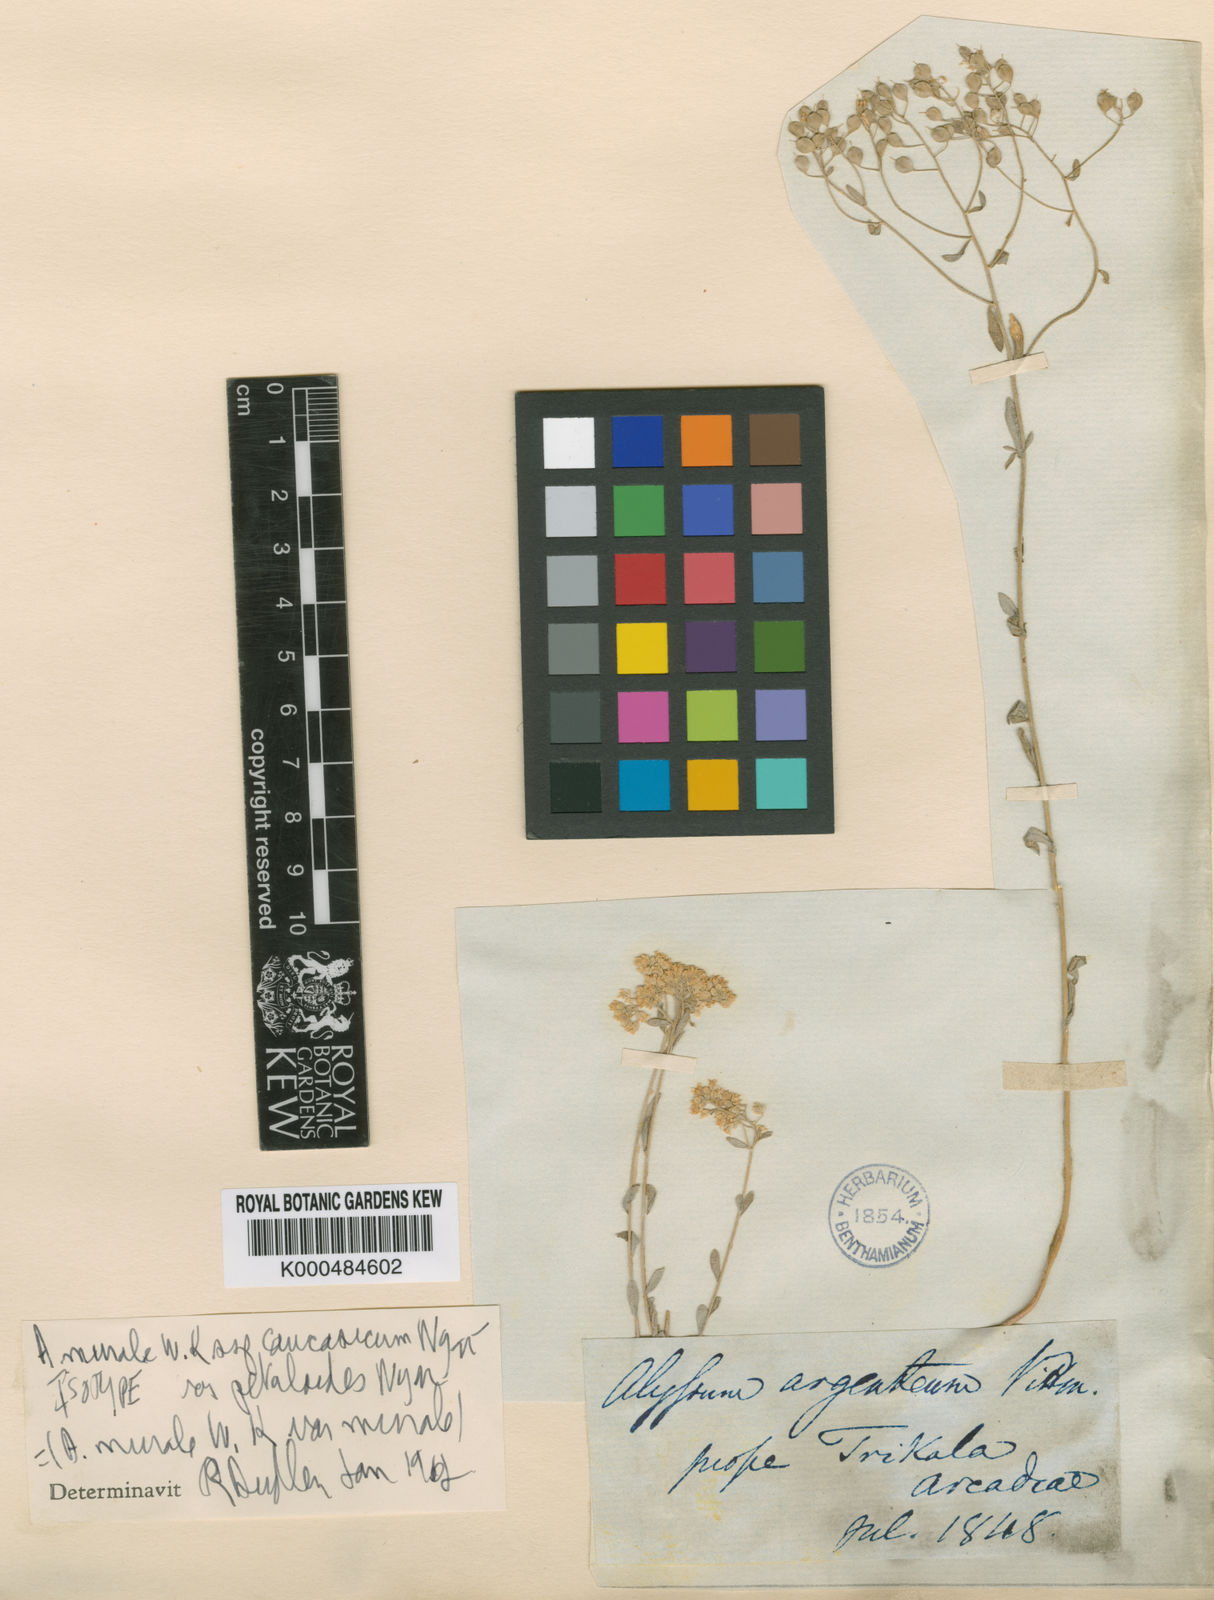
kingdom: Plantae
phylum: Tracheophyta
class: Magnoliopsida
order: Brassicales
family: Brassicaceae
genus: Odontarrhena
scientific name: Odontarrhena muralis
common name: Rock alyssum
